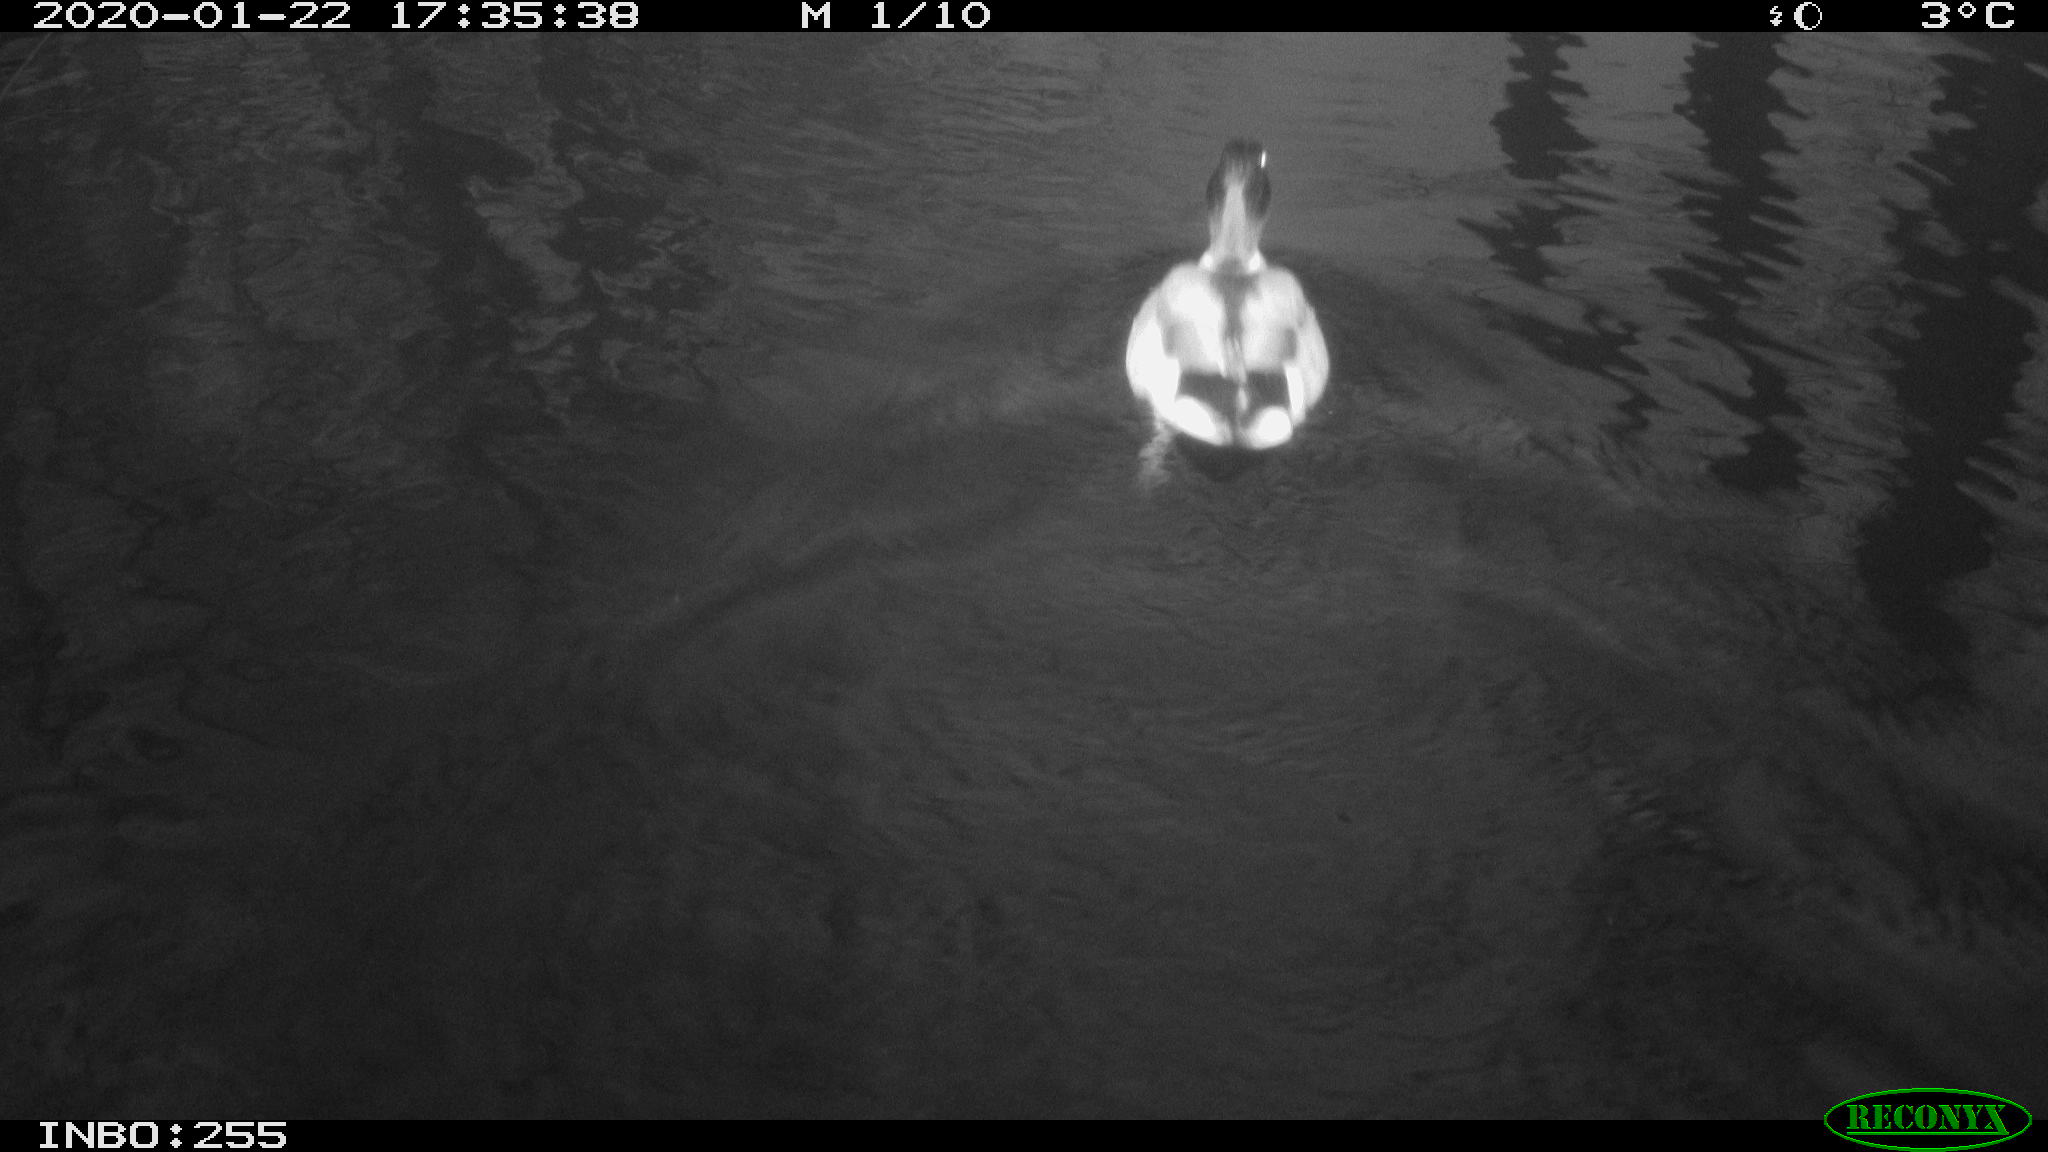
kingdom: Animalia
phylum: Chordata
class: Aves
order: Anseriformes
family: Anatidae
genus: Anas
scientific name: Anas platyrhynchos
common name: Mallard
